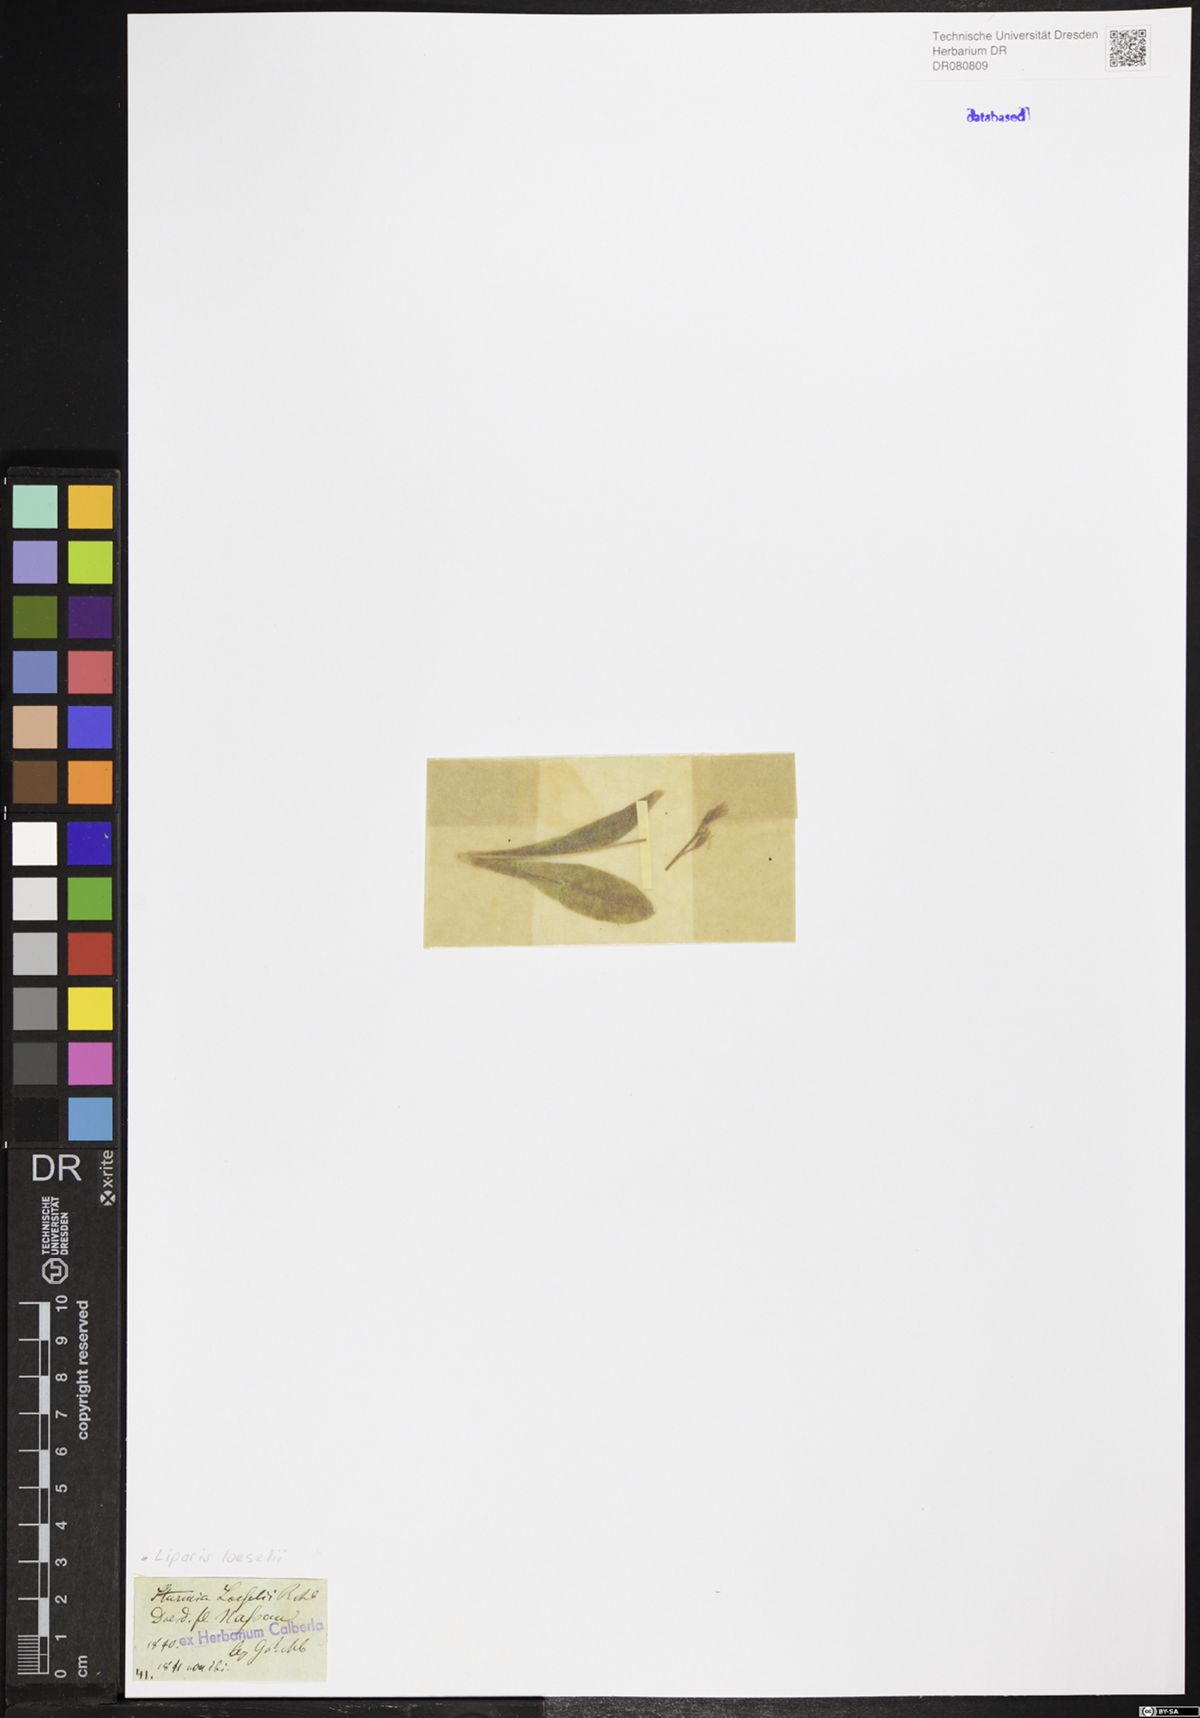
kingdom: Animalia
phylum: Arthropoda
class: Insecta
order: Coleoptera
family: Curculionidae
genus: Liparis
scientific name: Liparis loeselii
